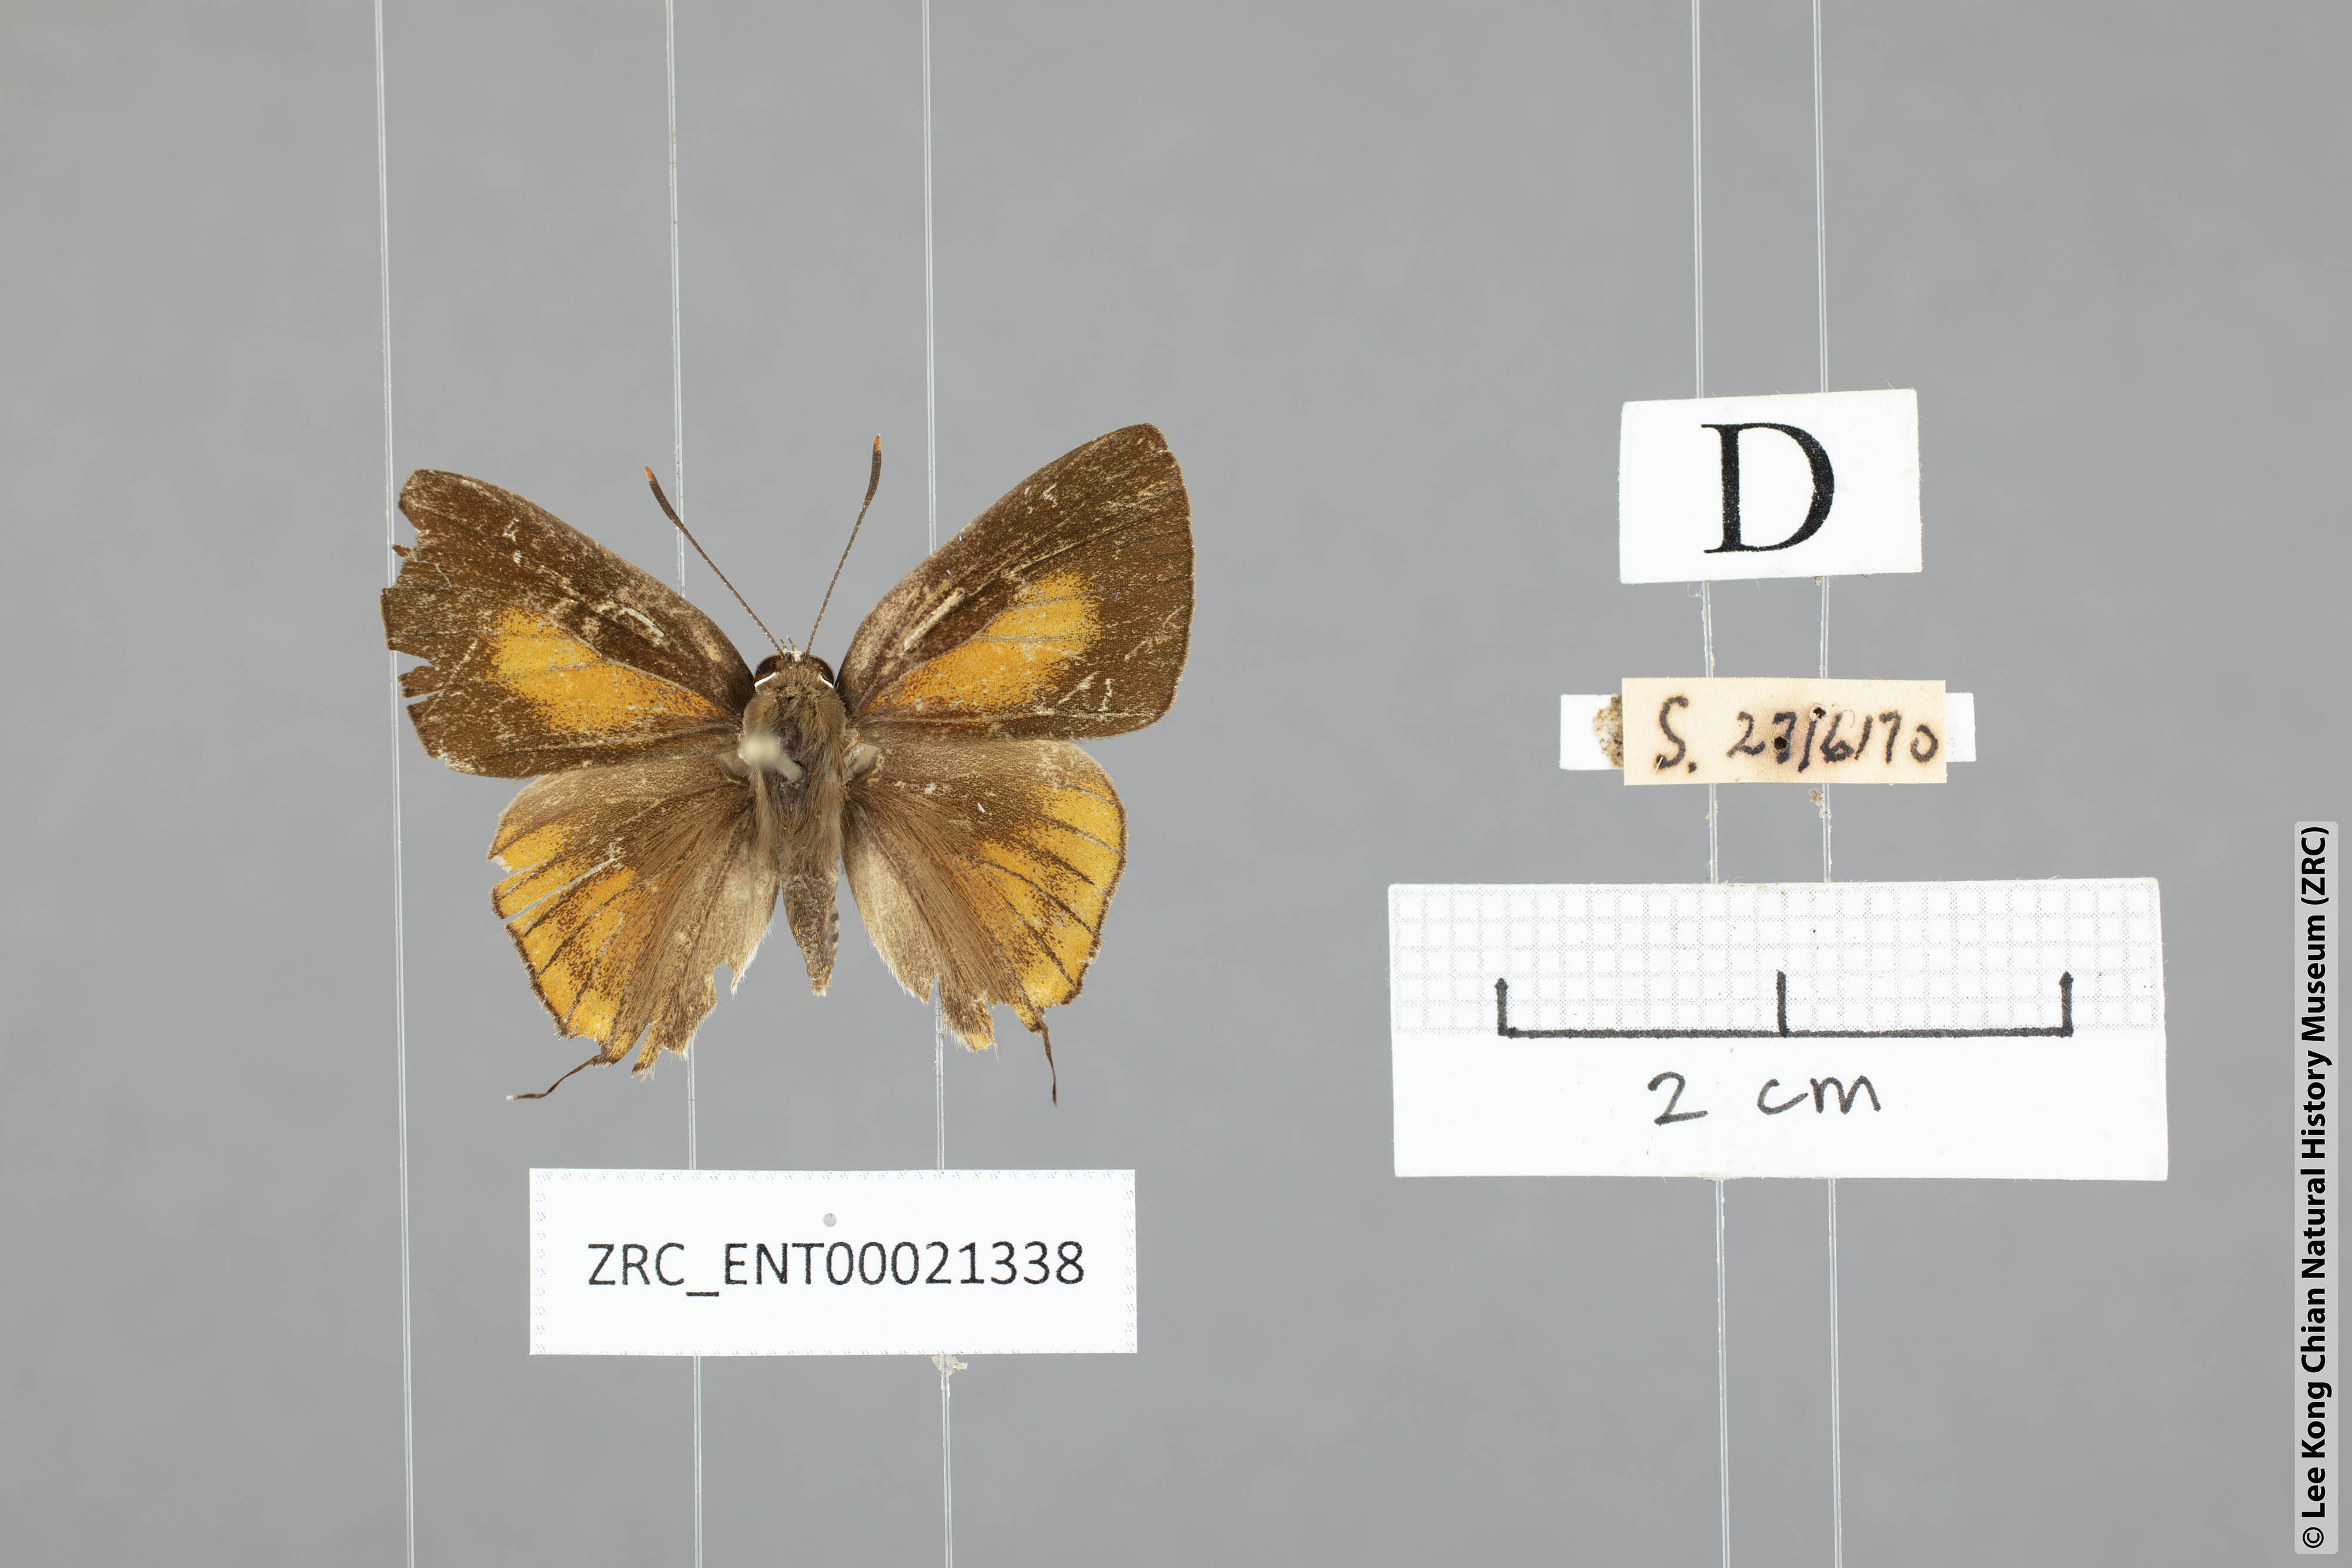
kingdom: Animalia
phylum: Arthropoda
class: Insecta
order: Lepidoptera
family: Lycaenidae
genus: Deudorix
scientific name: Deudorix elioti
